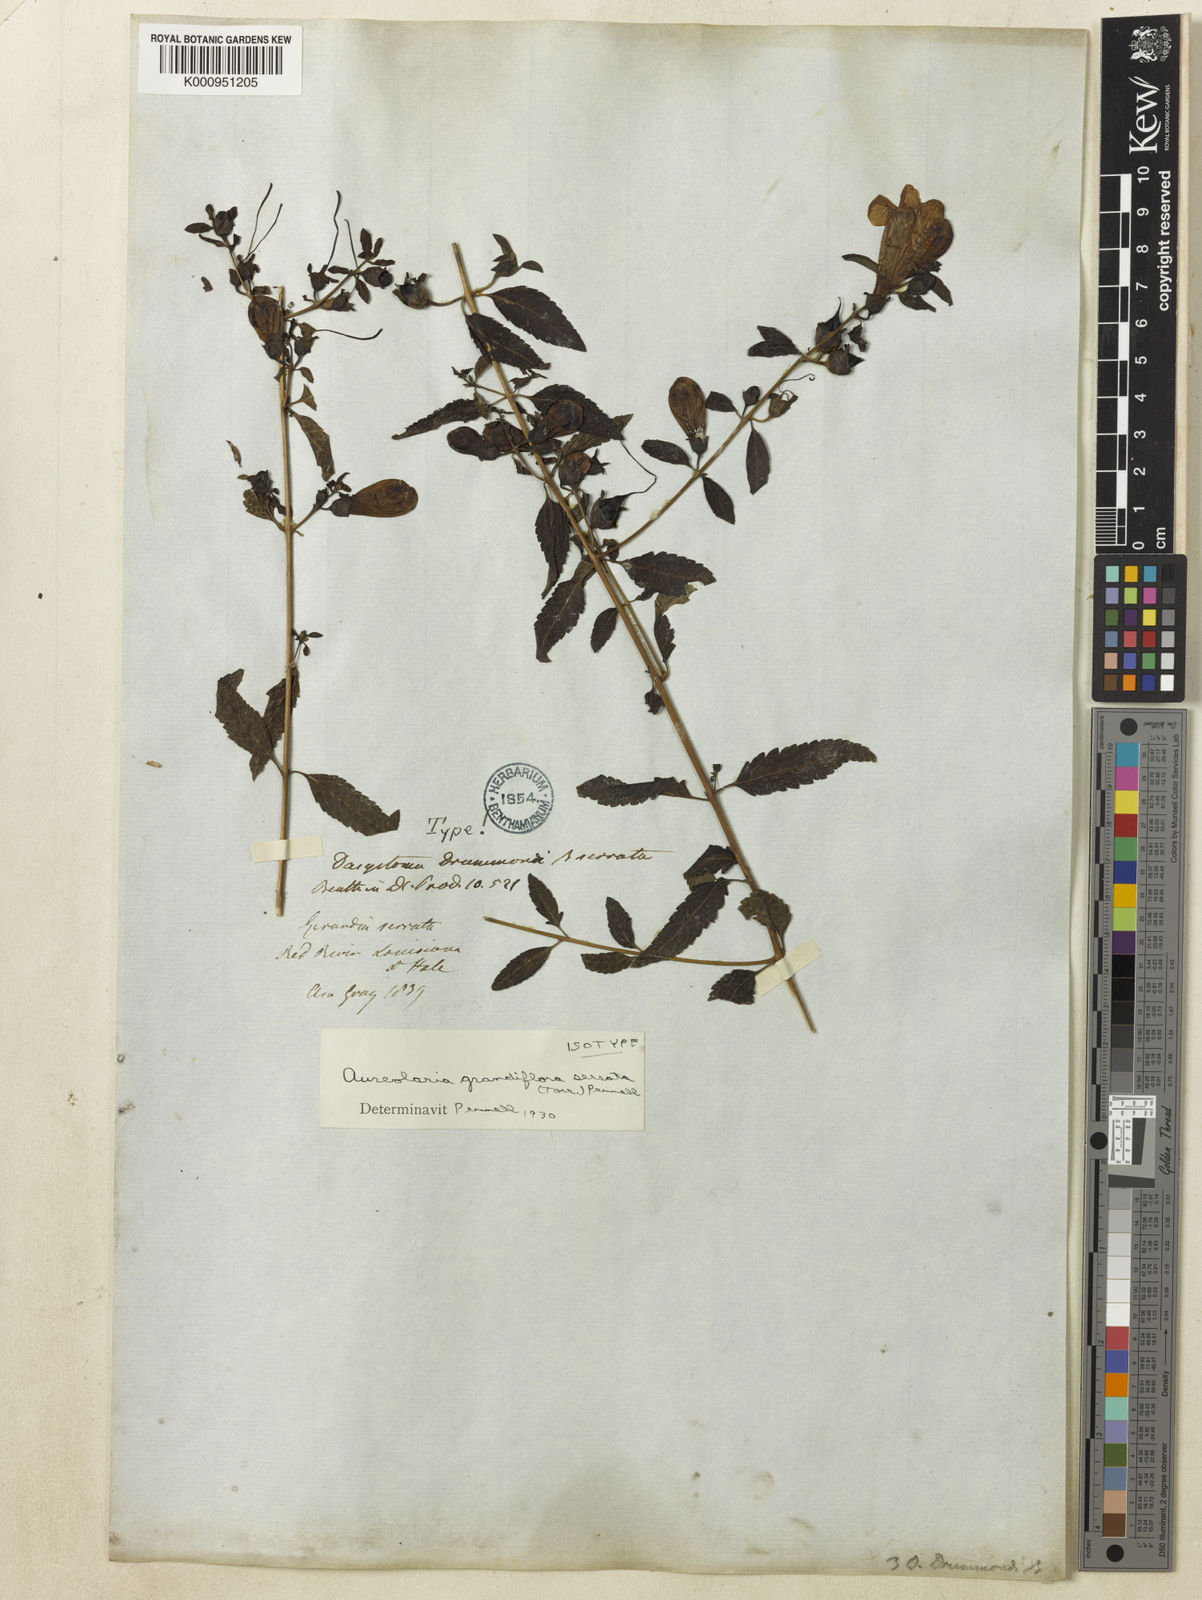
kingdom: Plantae
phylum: Tracheophyta
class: Magnoliopsida
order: Lamiales
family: Orobanchaceae
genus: Aureolaria
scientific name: Aureolaria grandiflora
